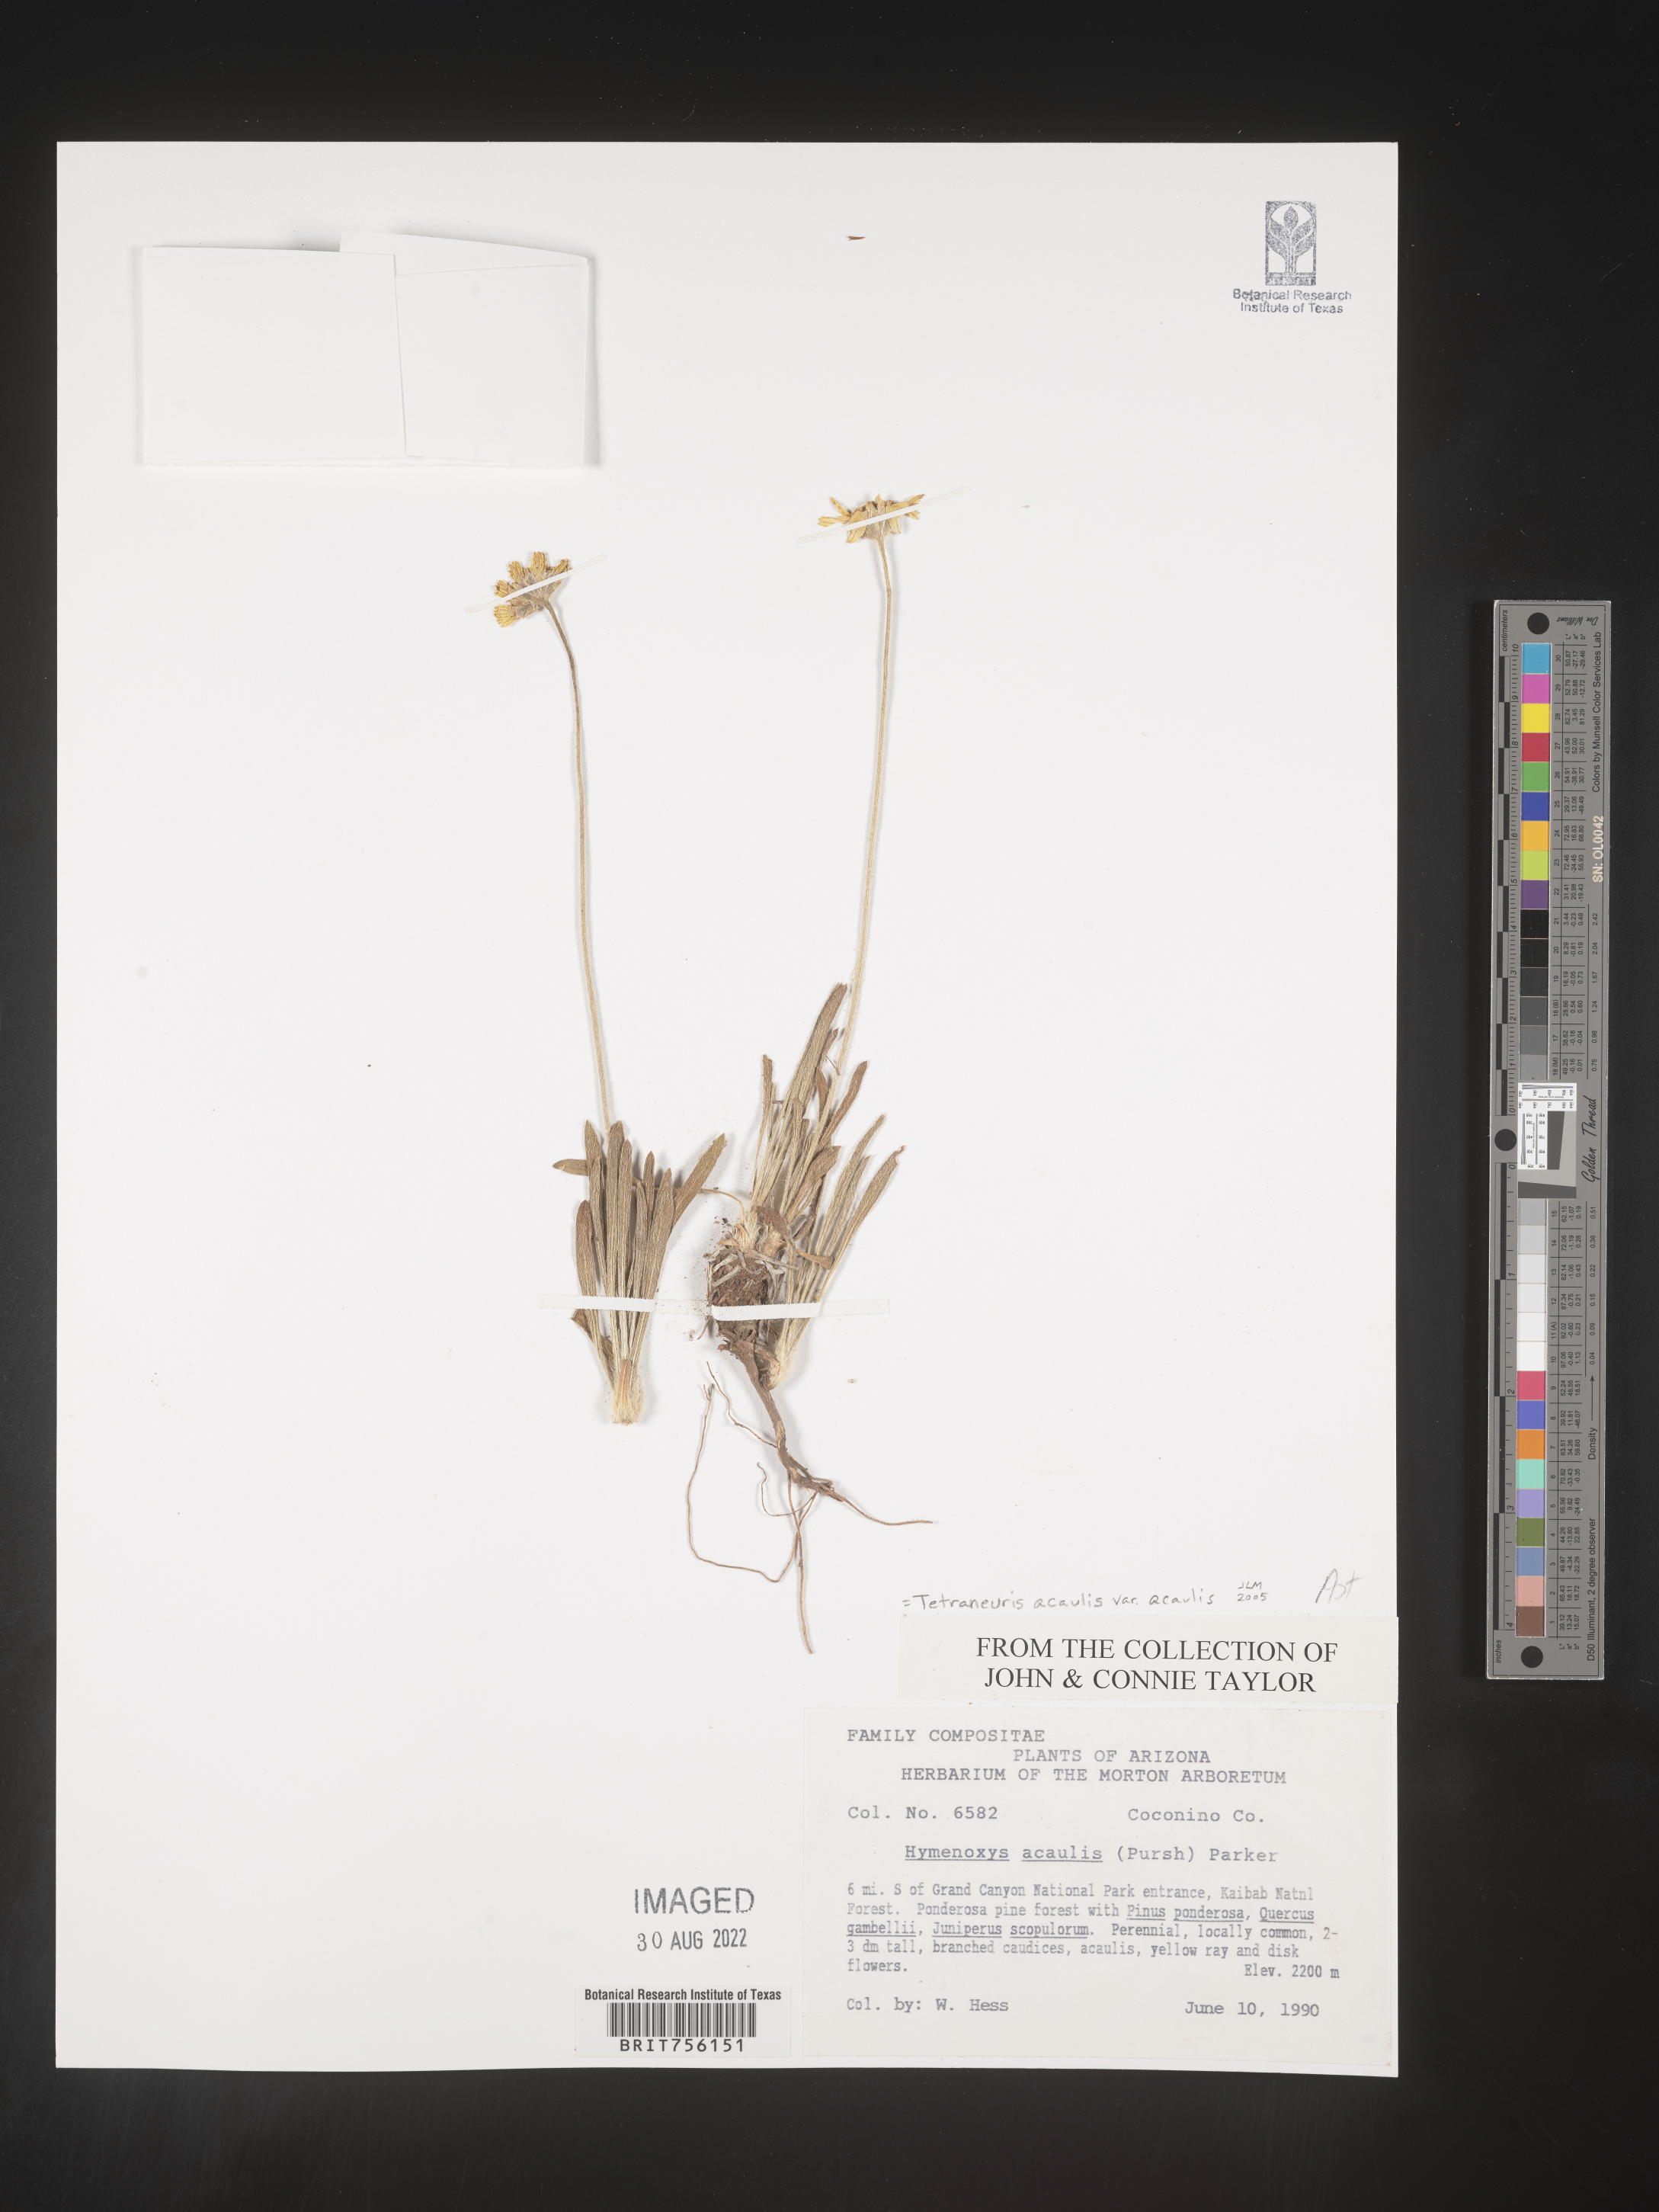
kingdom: Plantae
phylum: Tracheophyta
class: Magnoliopsida
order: Asterales
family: Asteraceae
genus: Tetraneuris
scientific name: Tetraneuris acaulis
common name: Butte marigold
